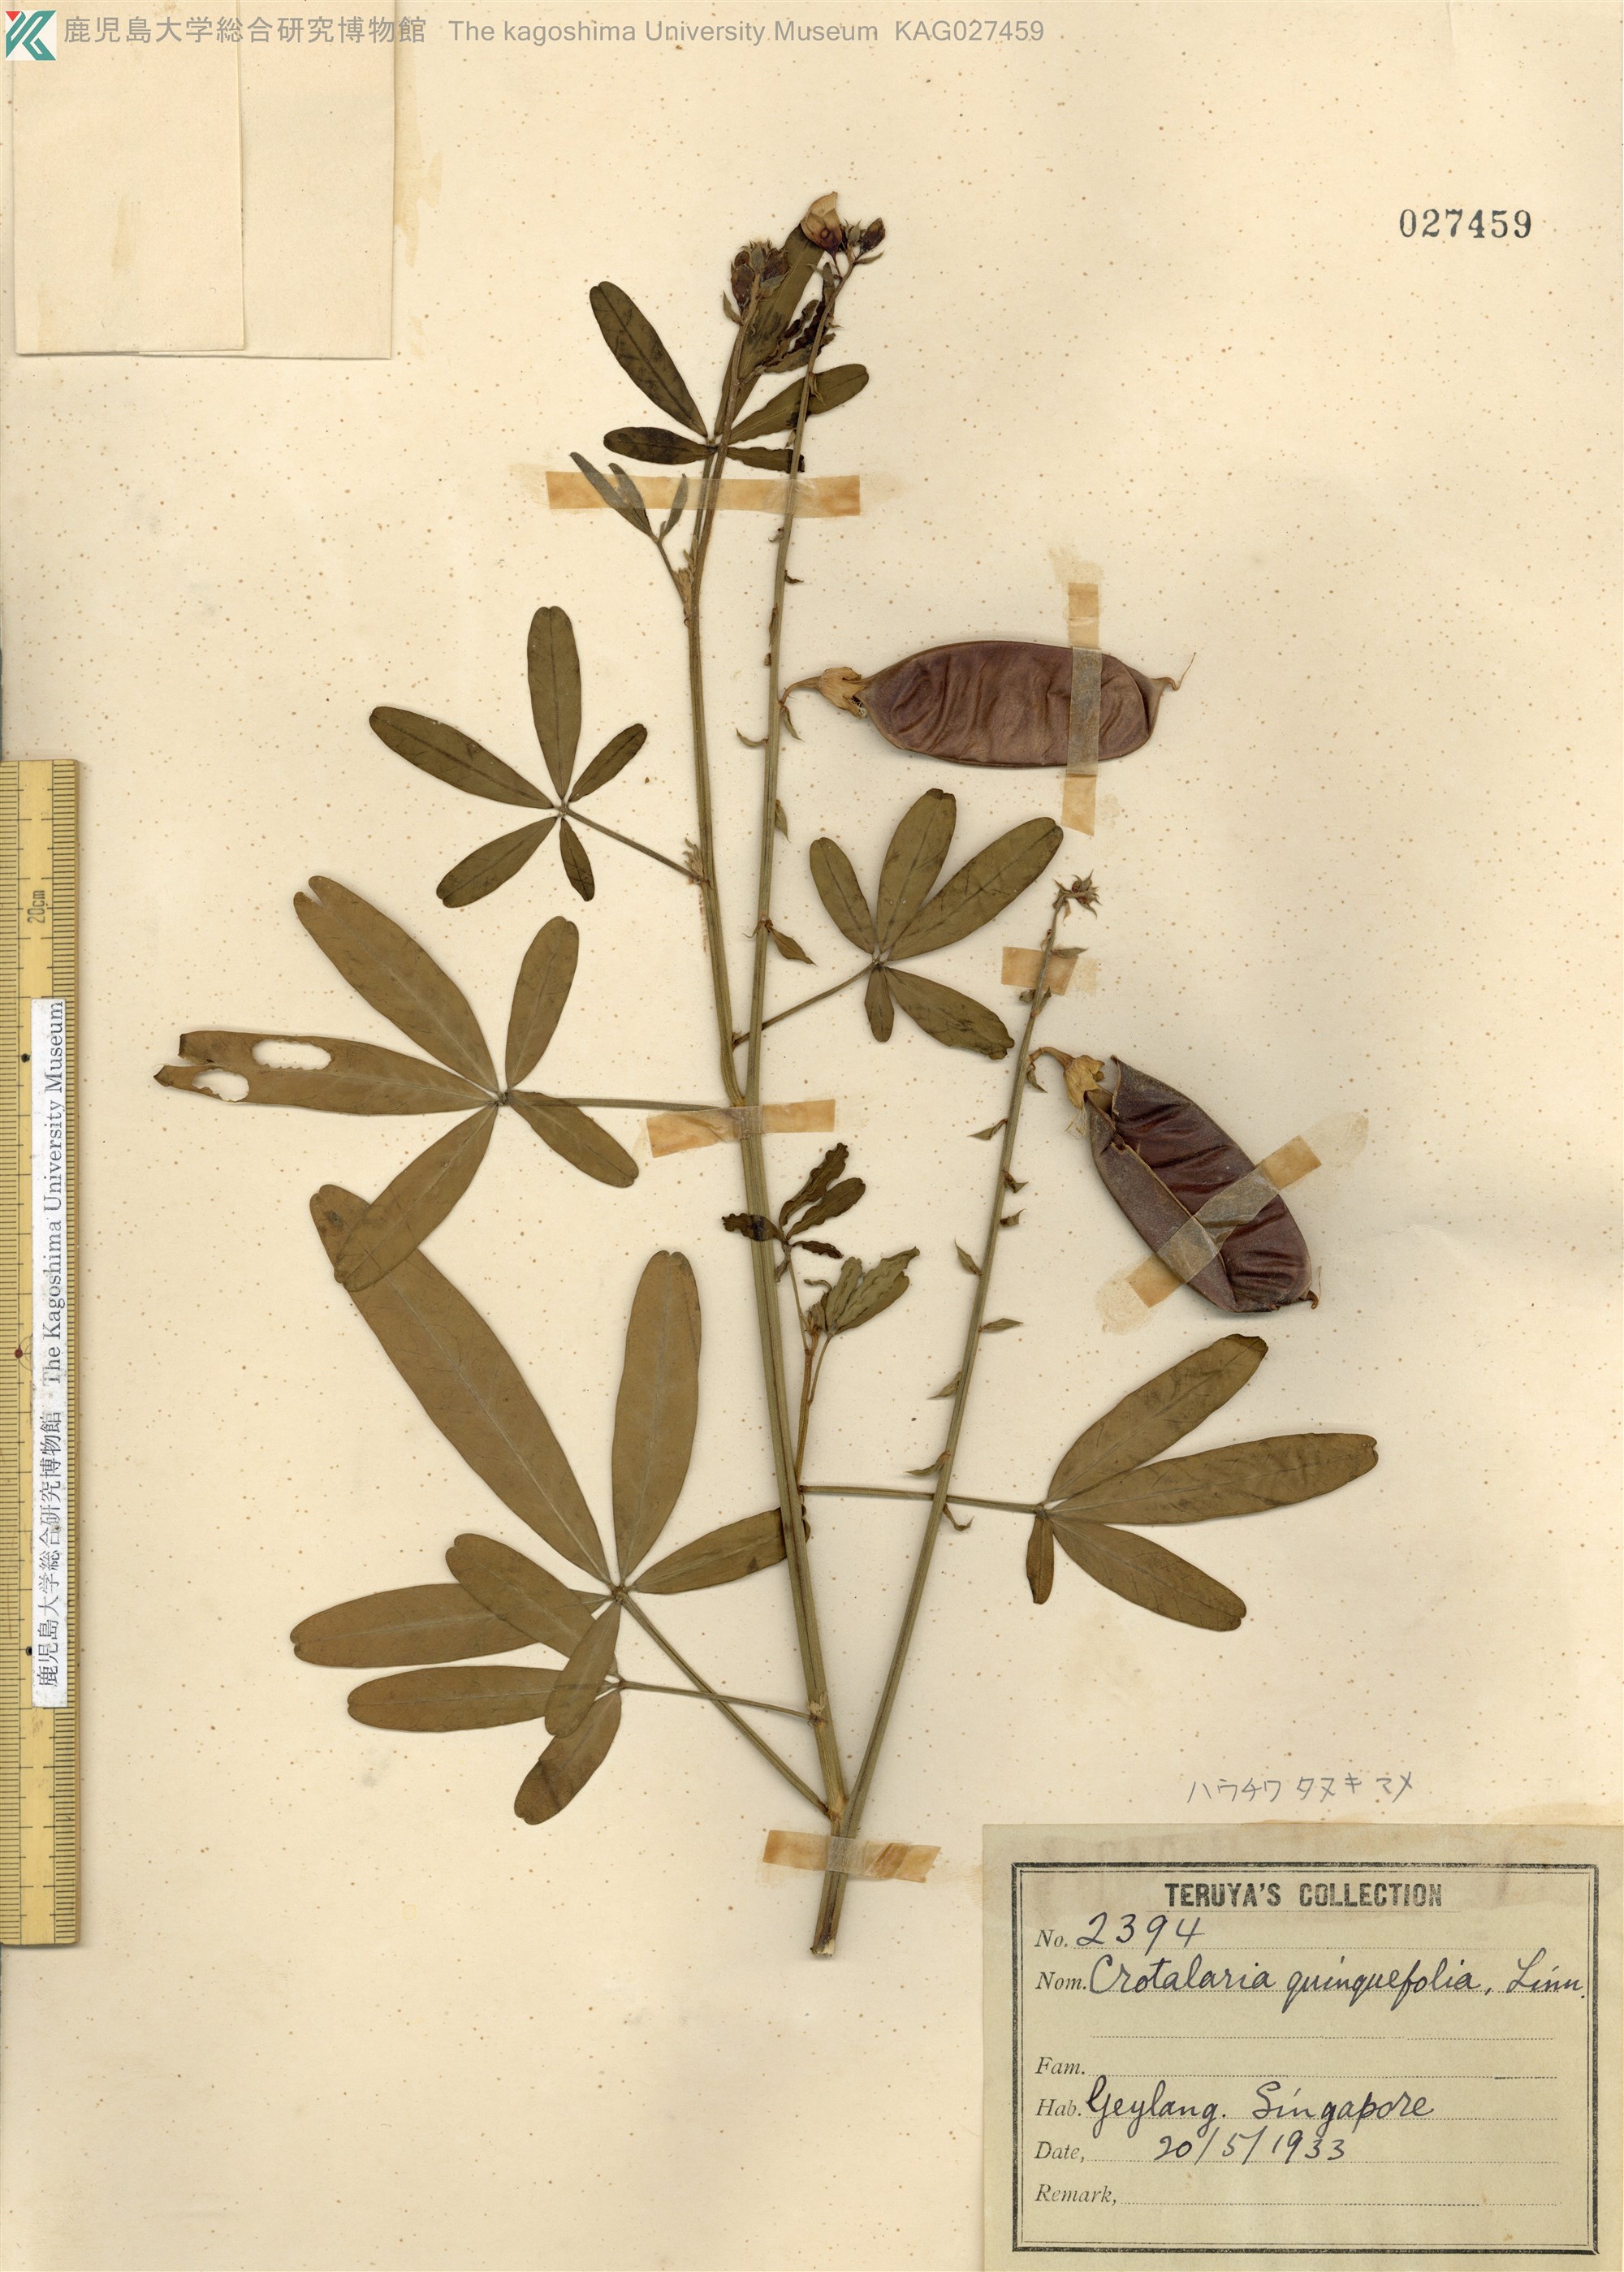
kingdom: Plantae
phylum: Tracheophyta
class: Magnoliopsida
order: Fabales
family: Fabaceae
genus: Crotalaria
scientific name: Crotalaria quinquefolia
